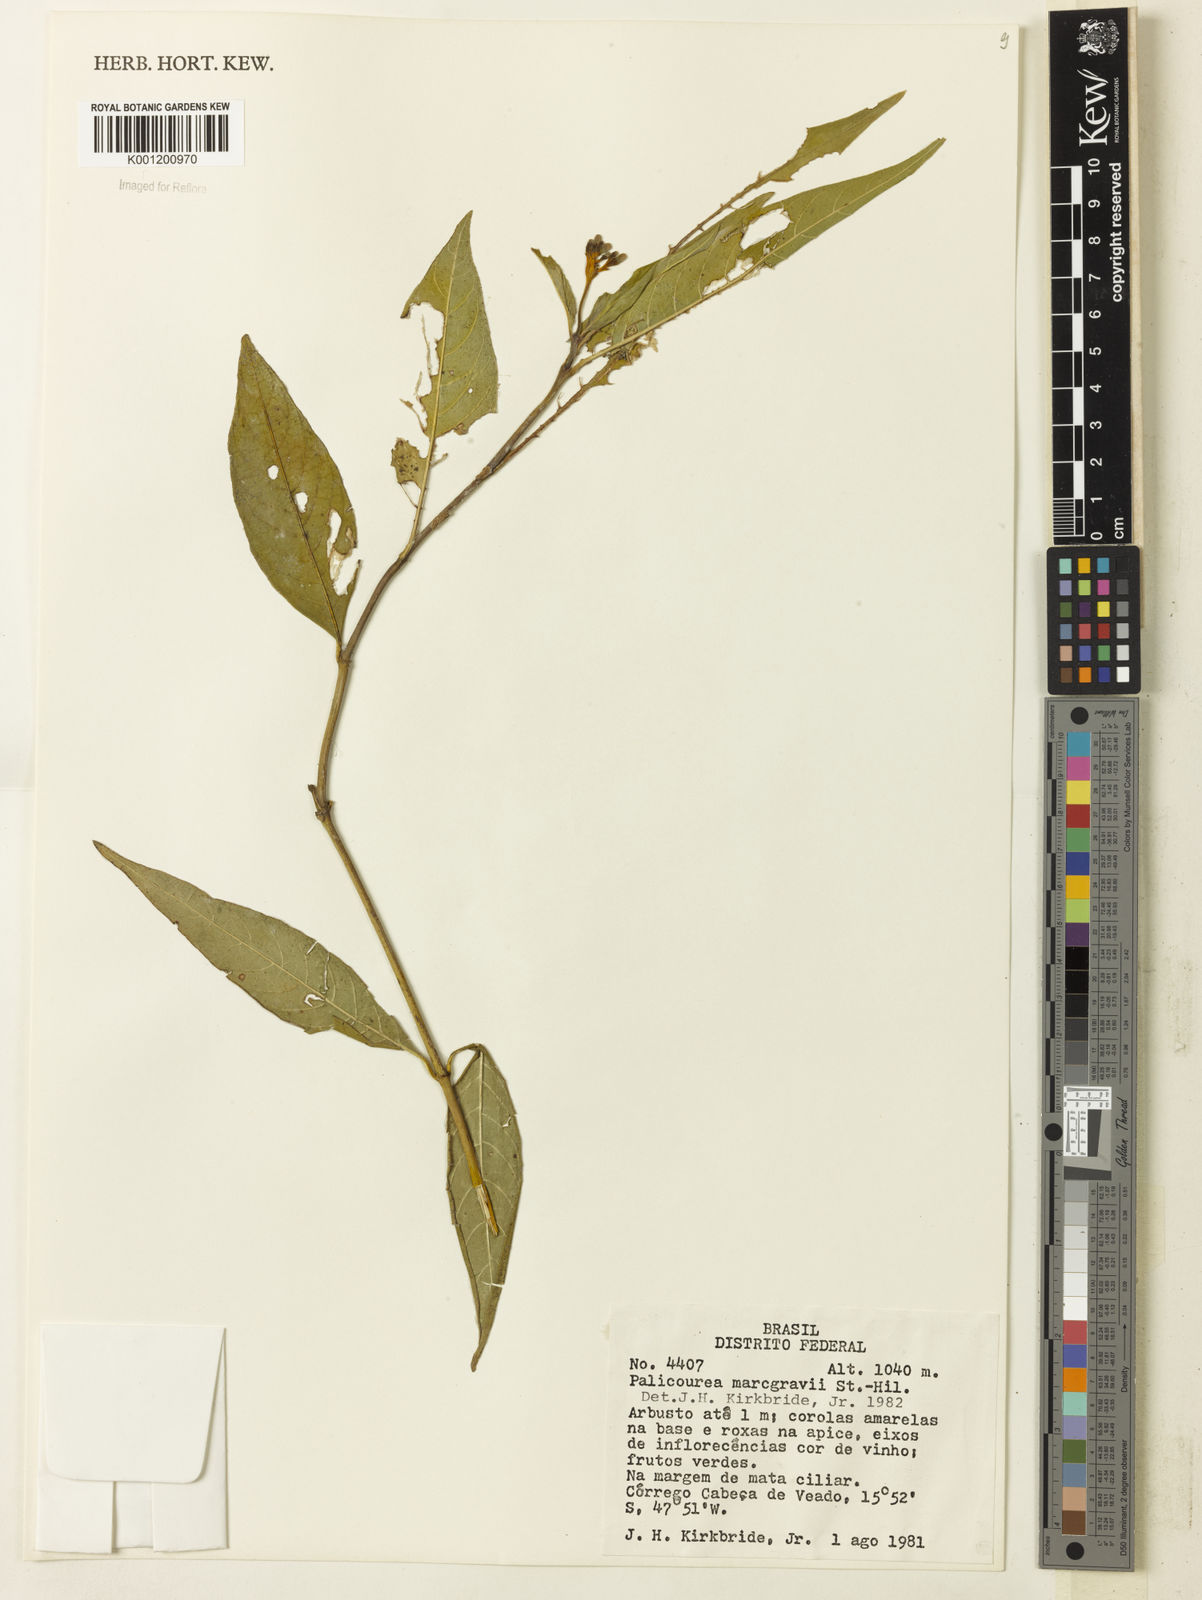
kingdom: Plantae
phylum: Tracheophyta
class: Magnoliopsida
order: Gentianales
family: Rubiaceae
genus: Palicourea
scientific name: Palicourea marcgravii
